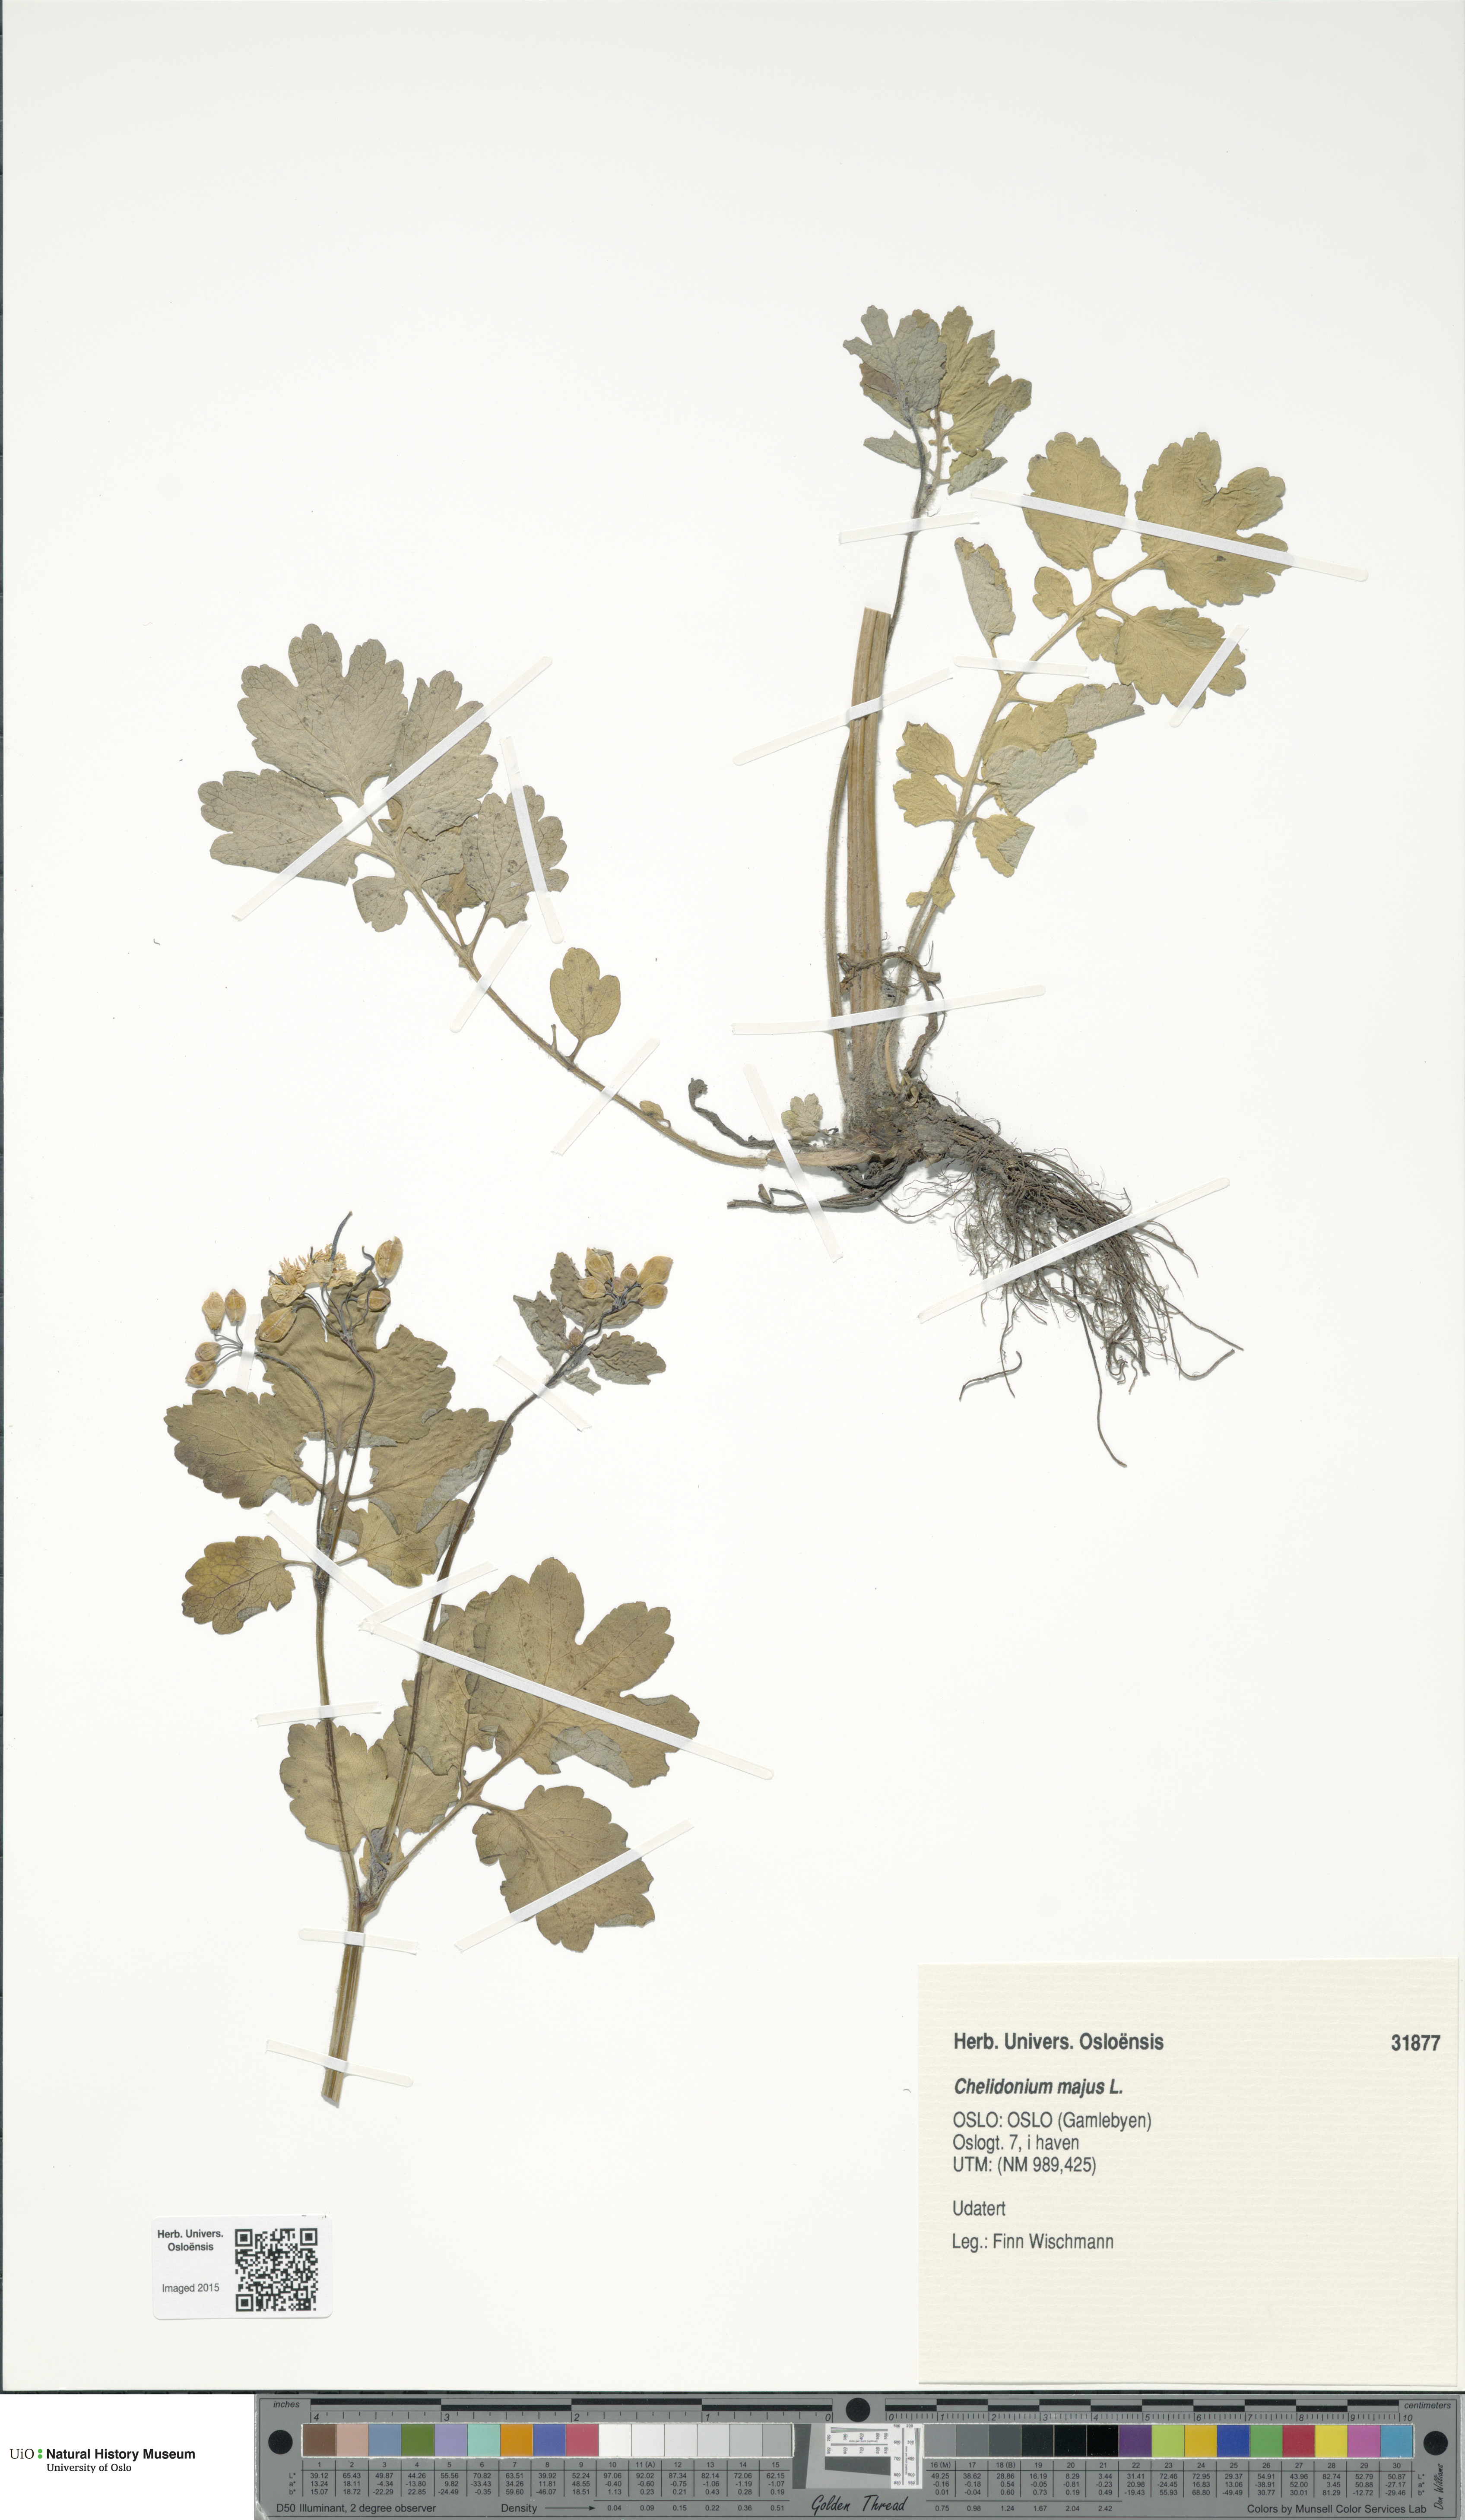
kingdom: Plantae
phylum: Tracheophyta
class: Magnoliopsida
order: Ranunculales
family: Papaveraceae
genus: Chelidonium
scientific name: Chelidonium majus
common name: Greater celandine
